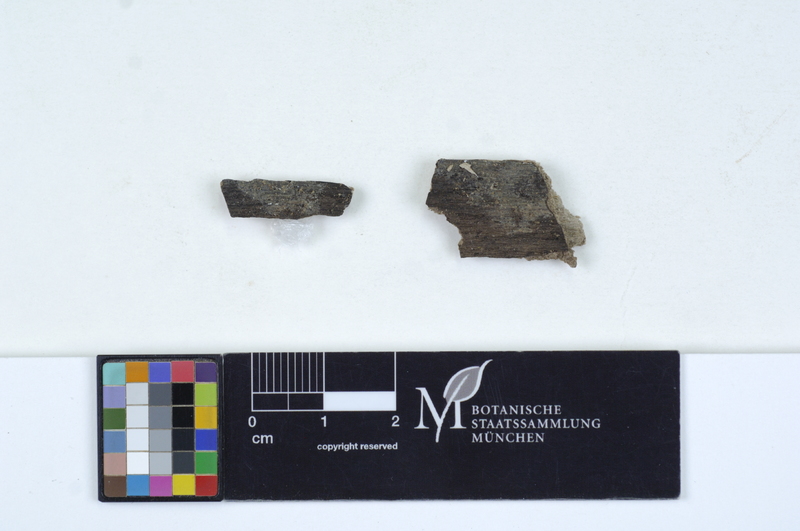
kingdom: Fungi
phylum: Basidiomycota
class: Agaricomycetes
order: Auriculariales
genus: Stypella
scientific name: Stypella subhyalina
